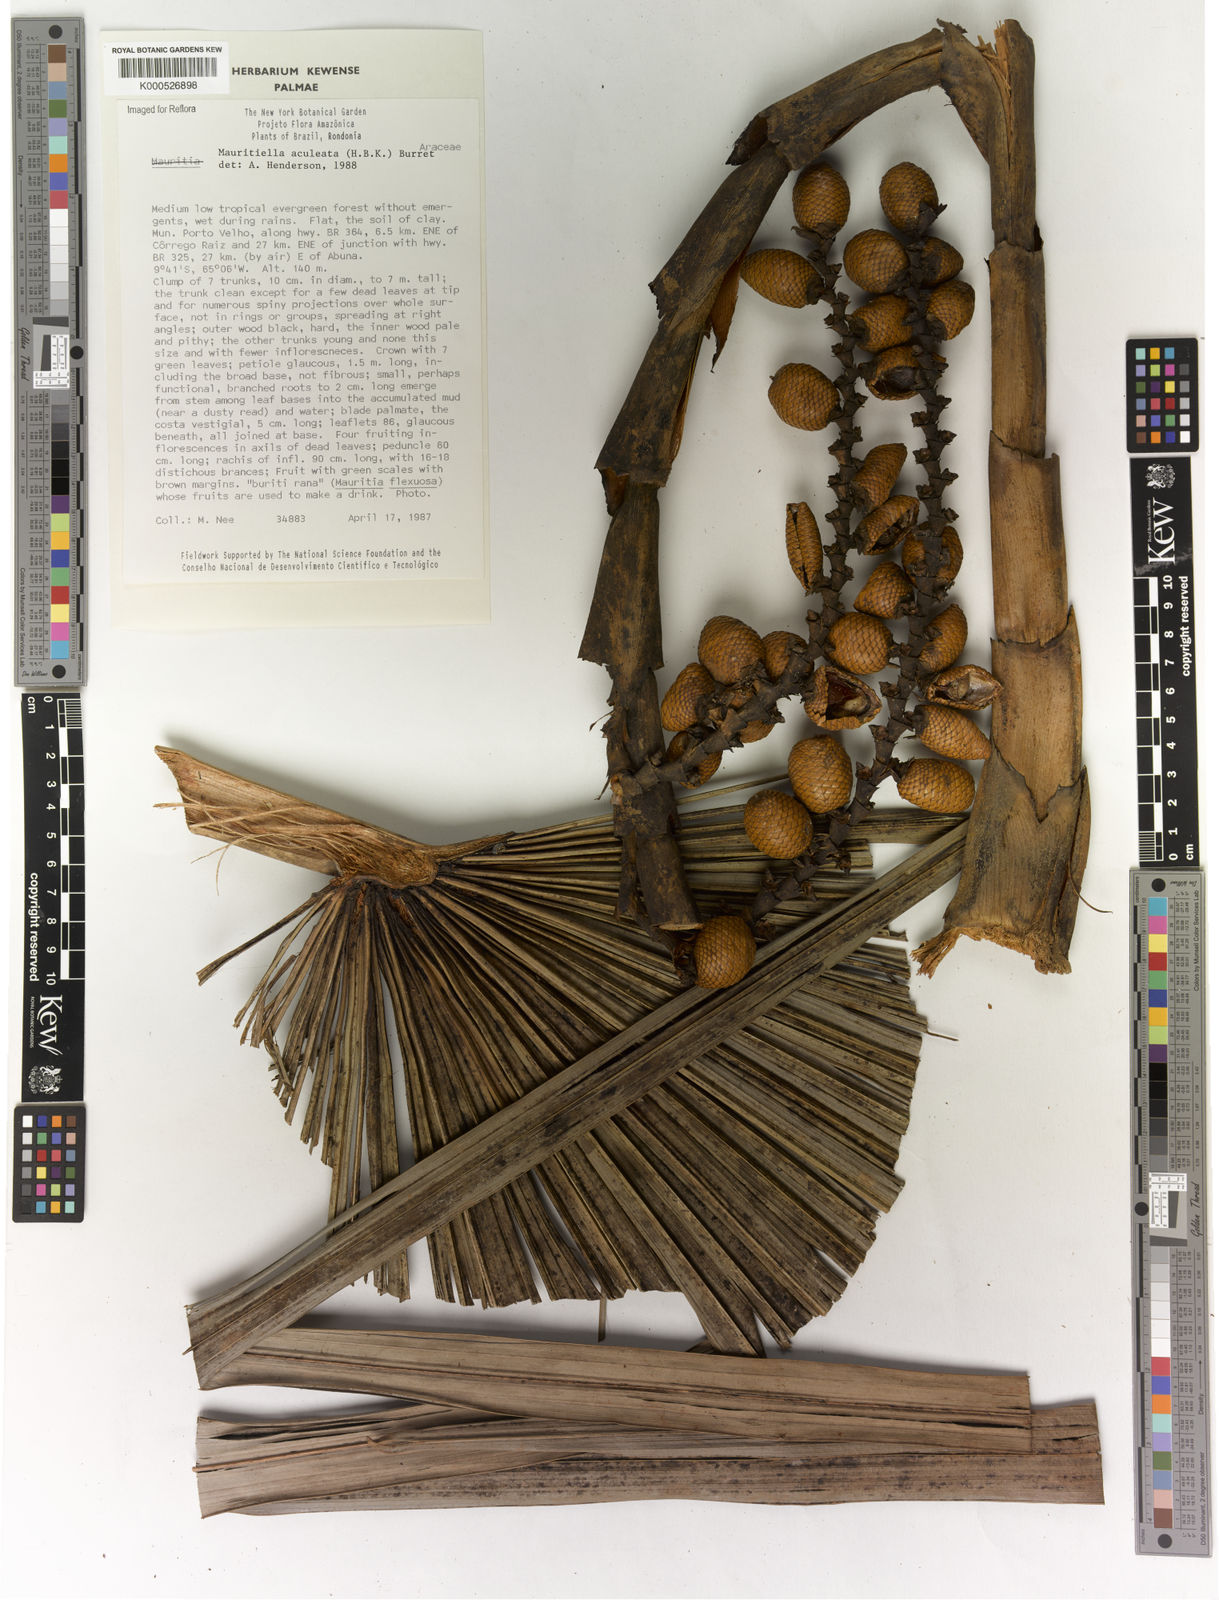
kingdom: Plantae
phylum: Tracheophyta
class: Liliopsida
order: Arecales
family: Arecaceae
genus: Mauritiella
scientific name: Mauritiella aculeata
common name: Buritirana
